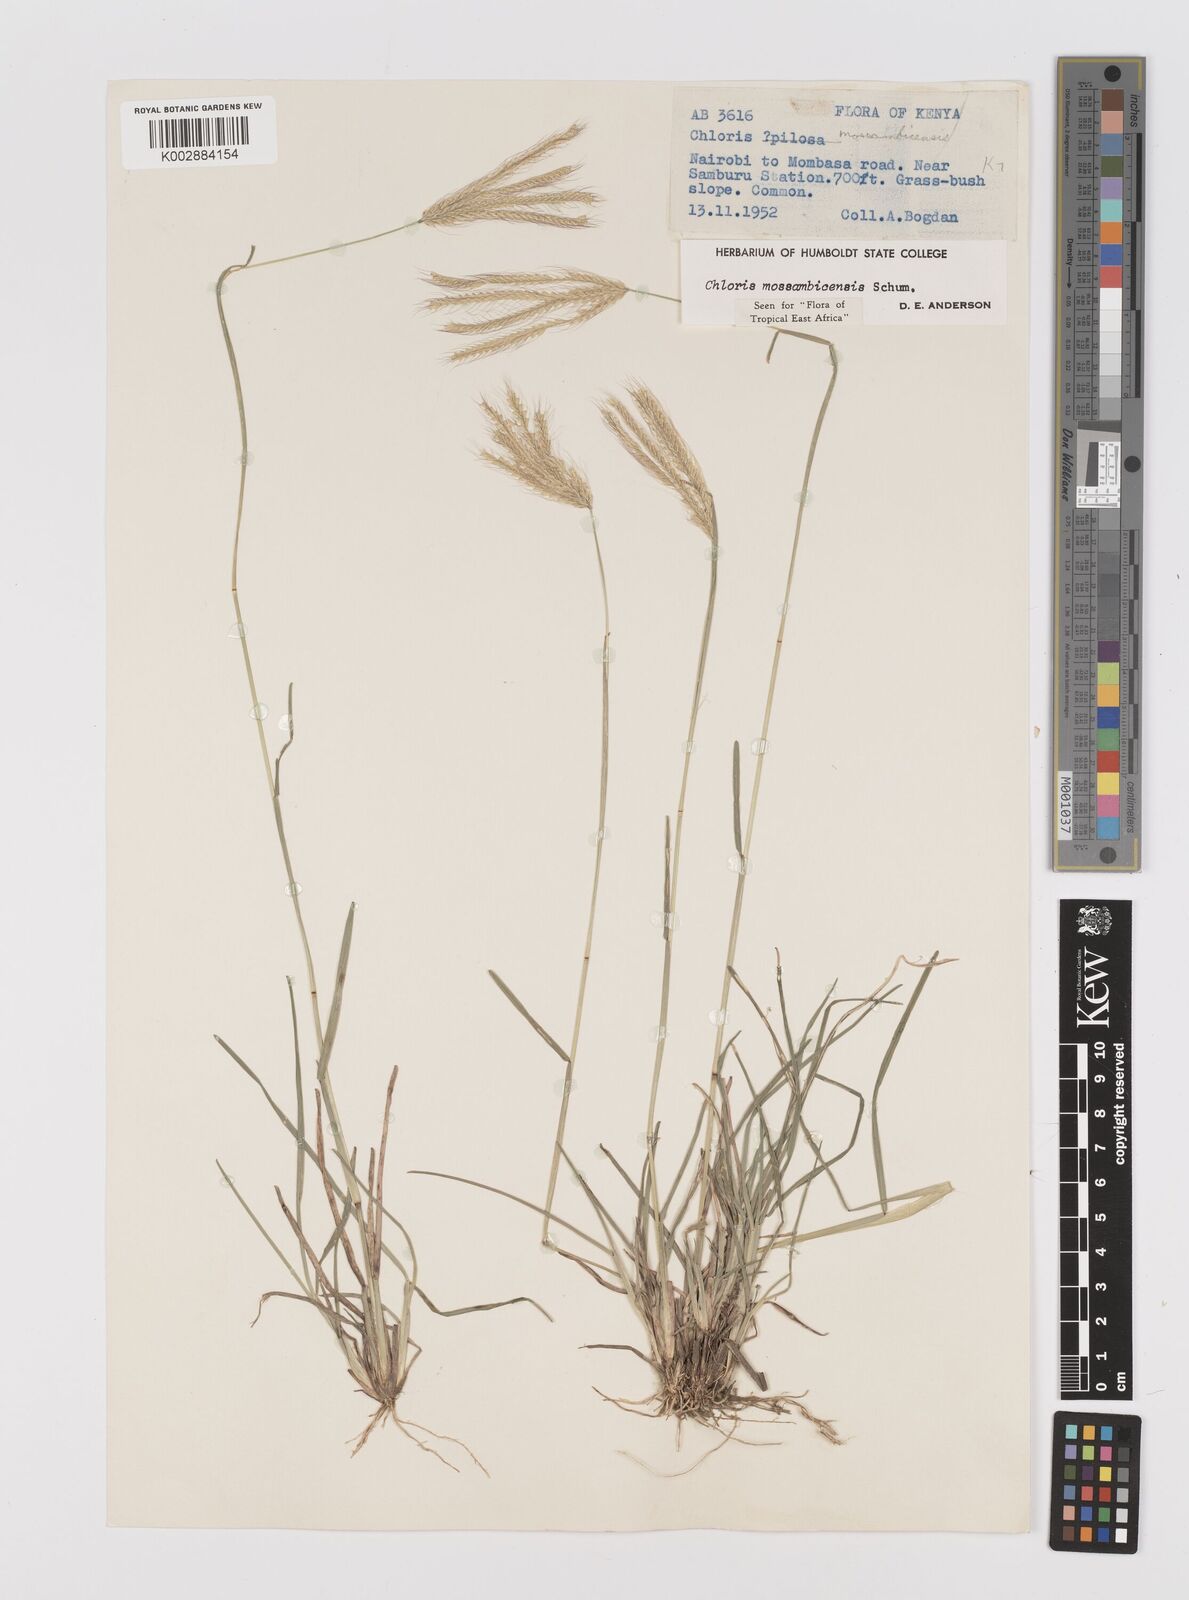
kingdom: Plantae
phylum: Tracheophyta
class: Liliopsida
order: Poales
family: Poaceae
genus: Chloris
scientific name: Chloris mossambicensis
